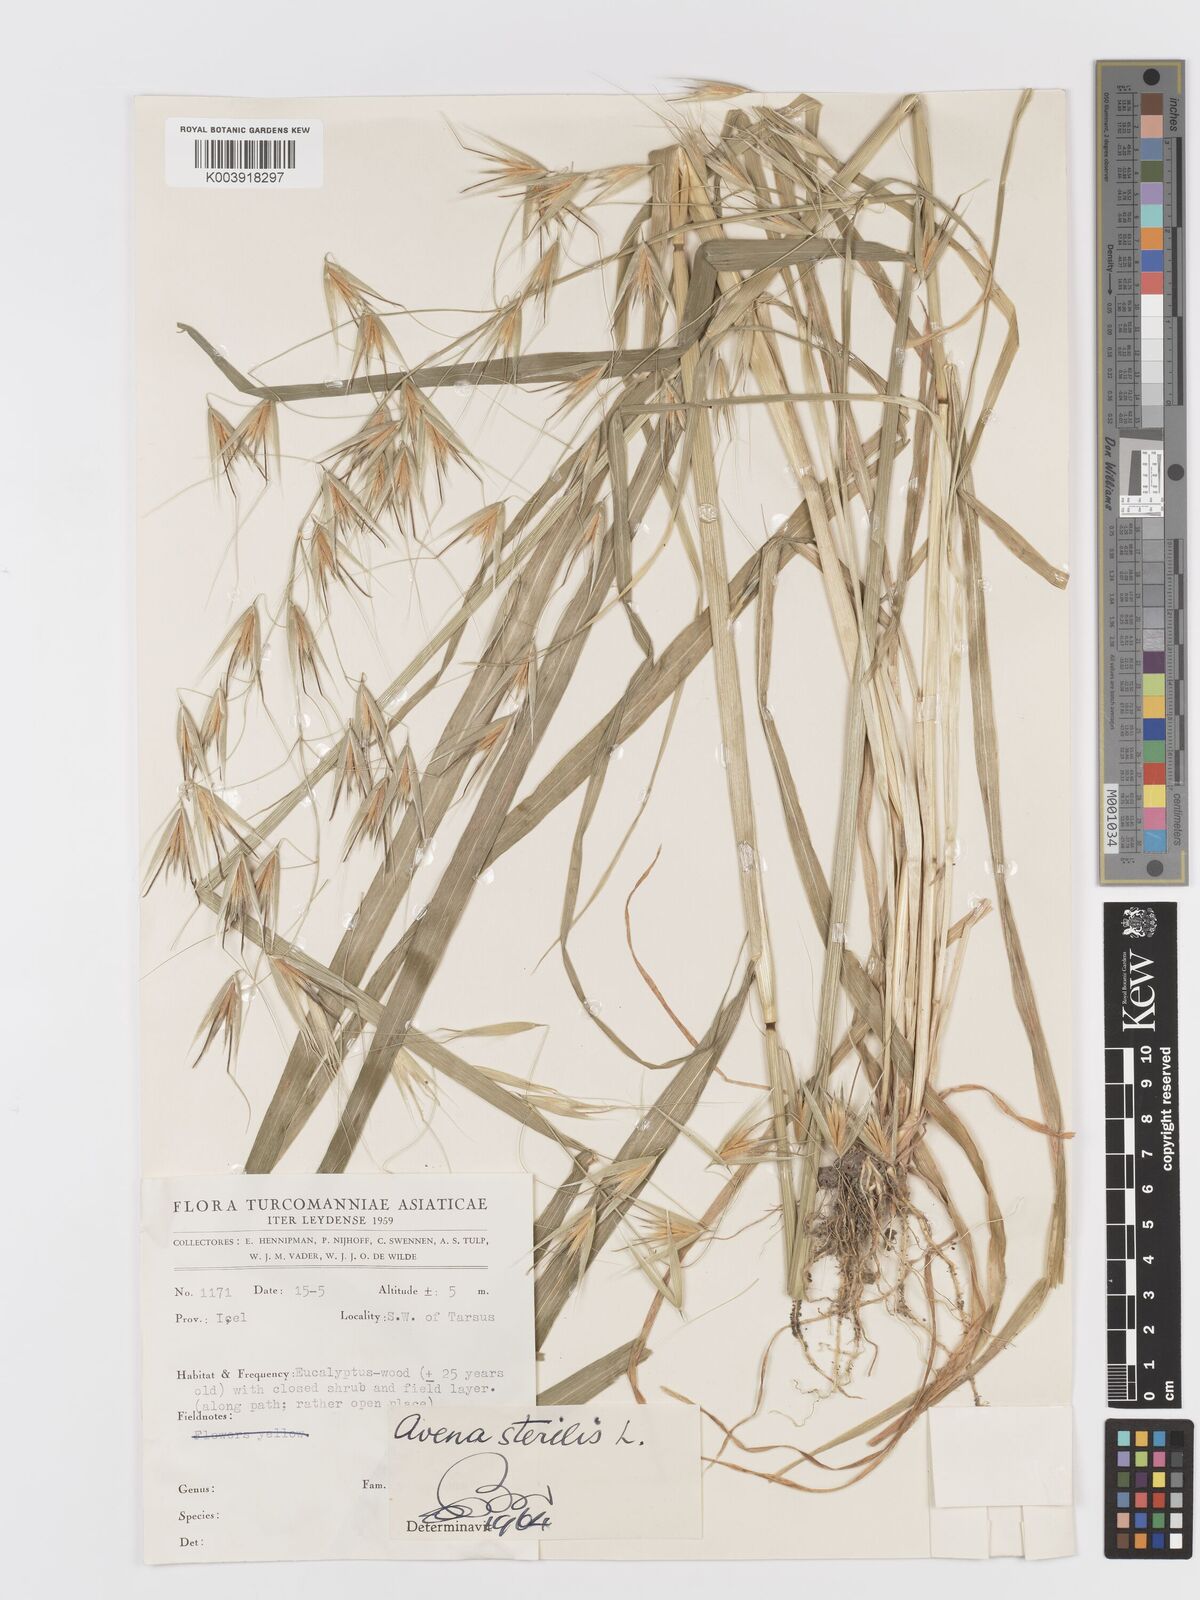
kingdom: Plantae
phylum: Tracheophyta
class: Liliopsida
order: Poales
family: Poaceae
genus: Avena
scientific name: Avena sterilis
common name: Animated oat
